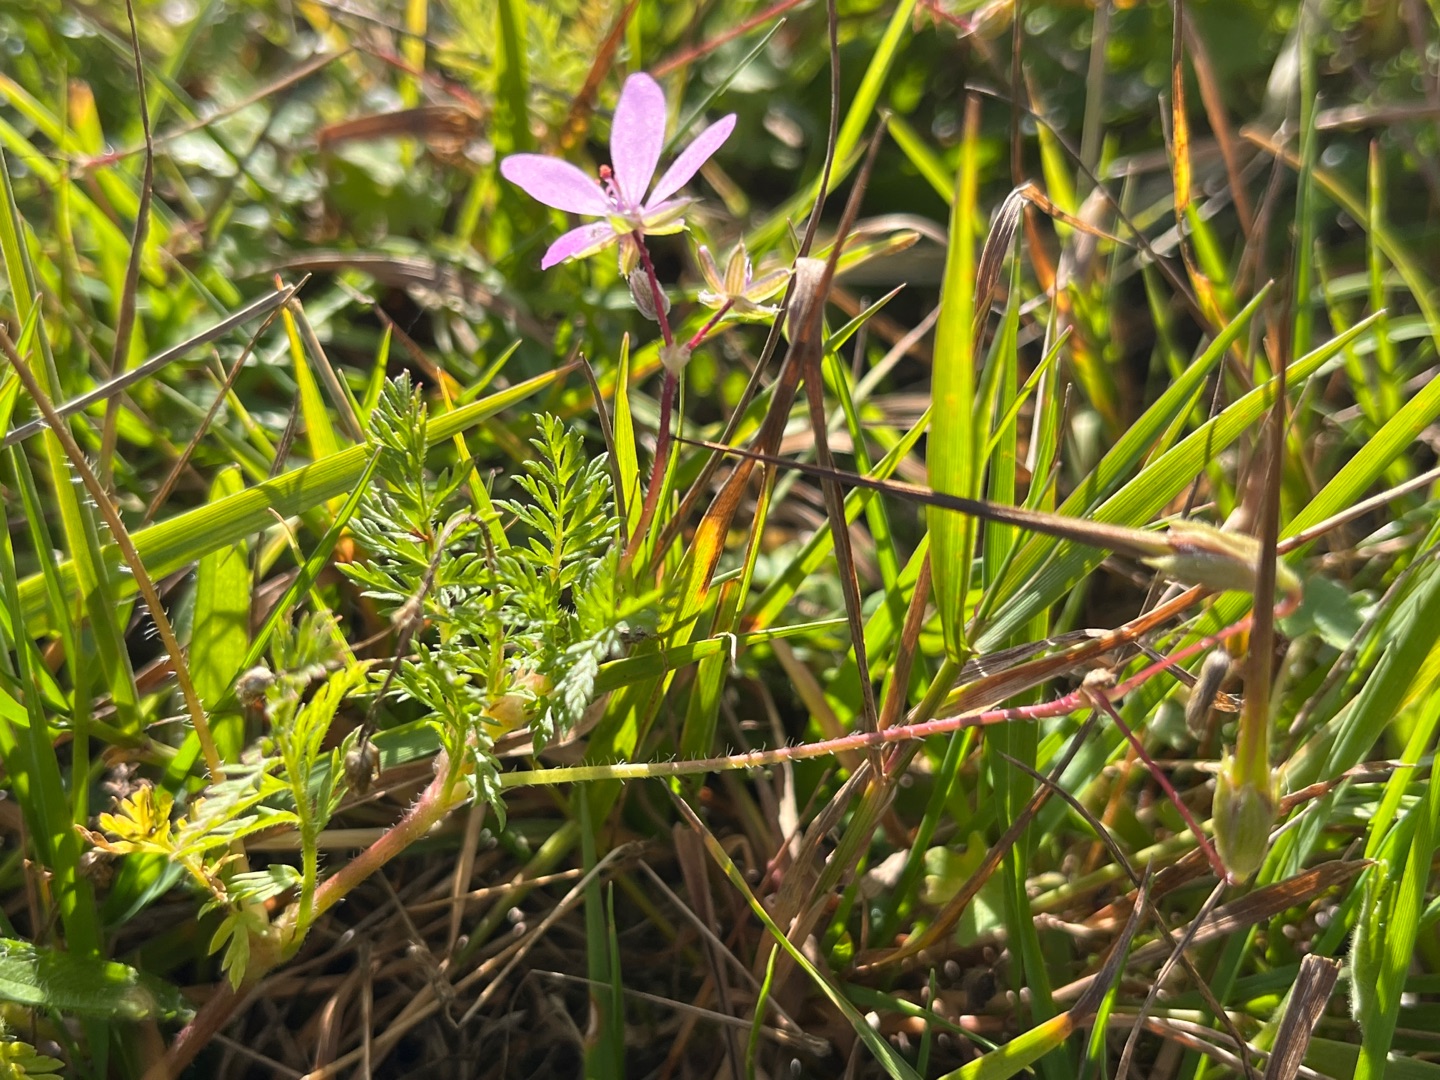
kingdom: Plantae
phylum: Tracheophyta
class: Magnoliopsida
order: Geraniales
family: Geraniaceae
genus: Erodium
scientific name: Erodium cicutarium
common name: Hejrenæb
